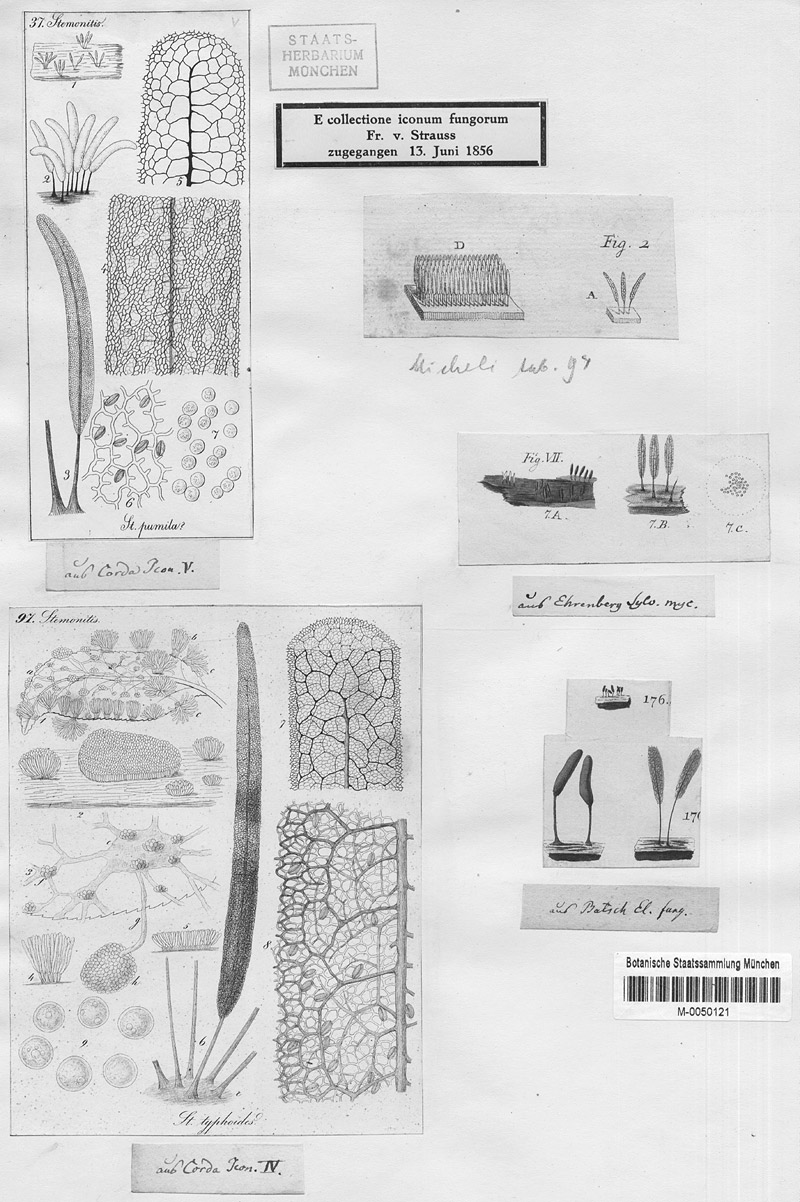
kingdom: Protozoa
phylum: Mycetozoa
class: Myxomycetes
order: Stemonitidales
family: Stemonitidaceae
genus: Stemonitopsis
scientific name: Stemonitopsis typhina
